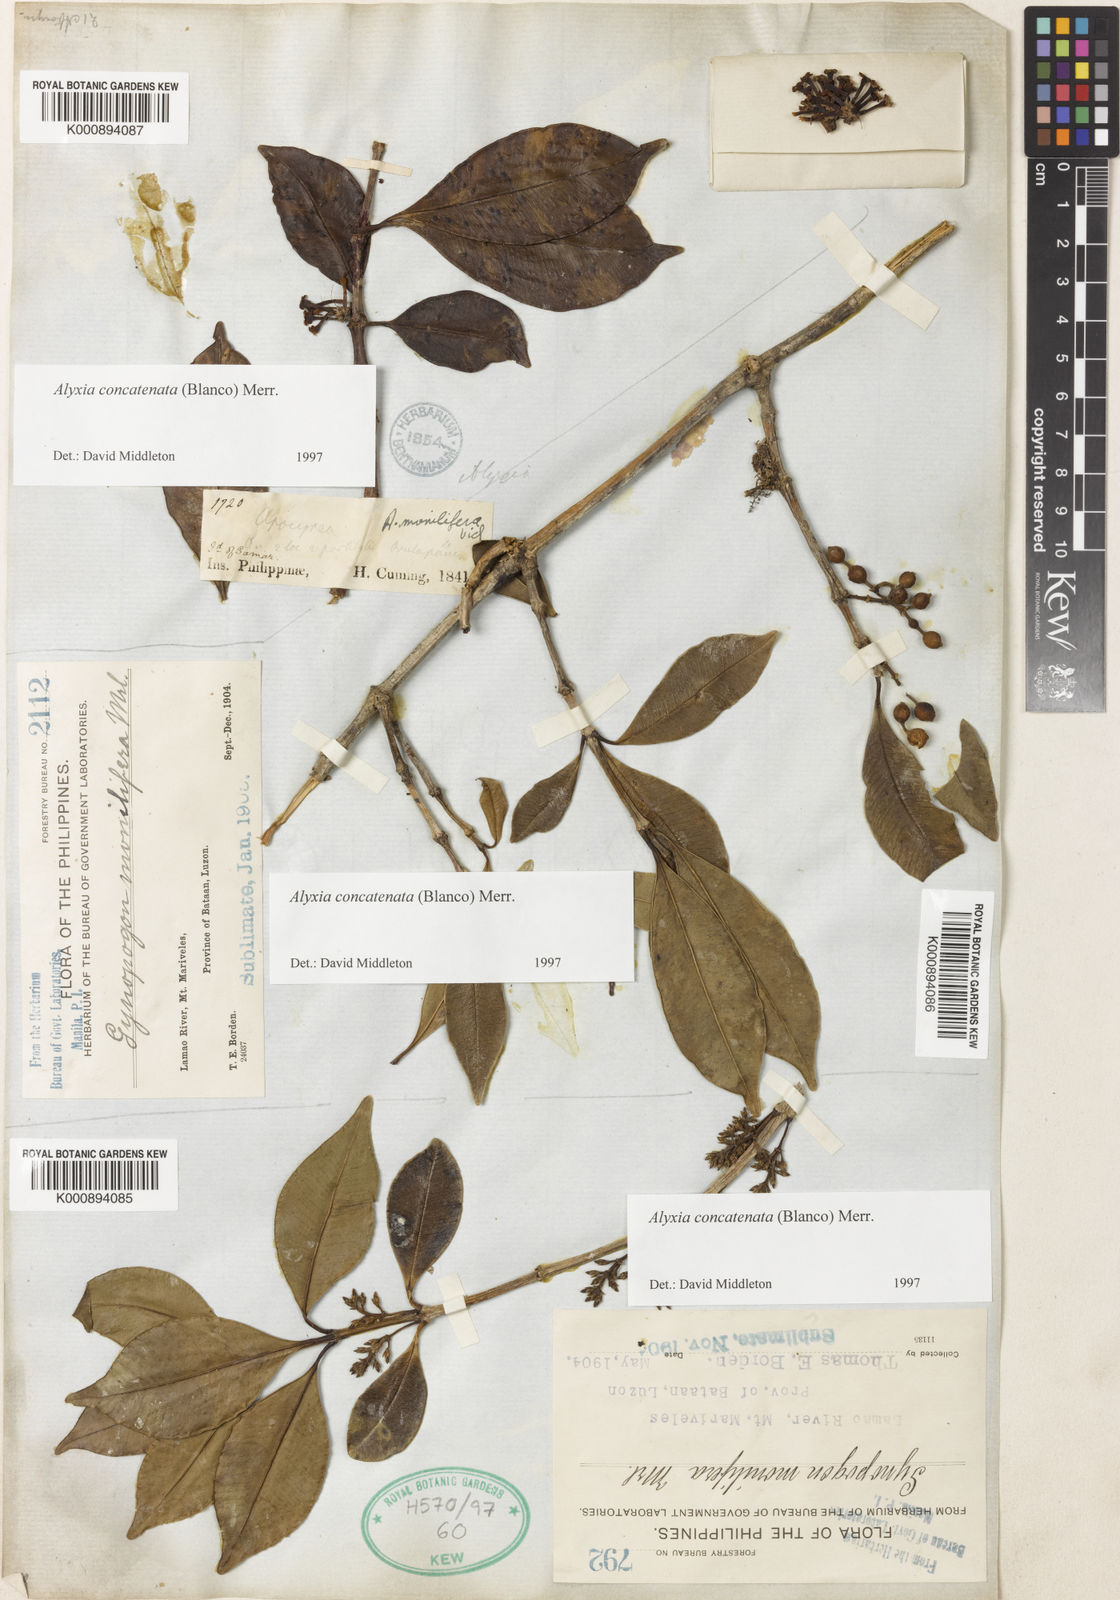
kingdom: Plantae
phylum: Tracheophyta
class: Magnoliopsida
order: Gentianales
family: Apocynaceae
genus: Alyxia
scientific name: Alyxia concatenata
